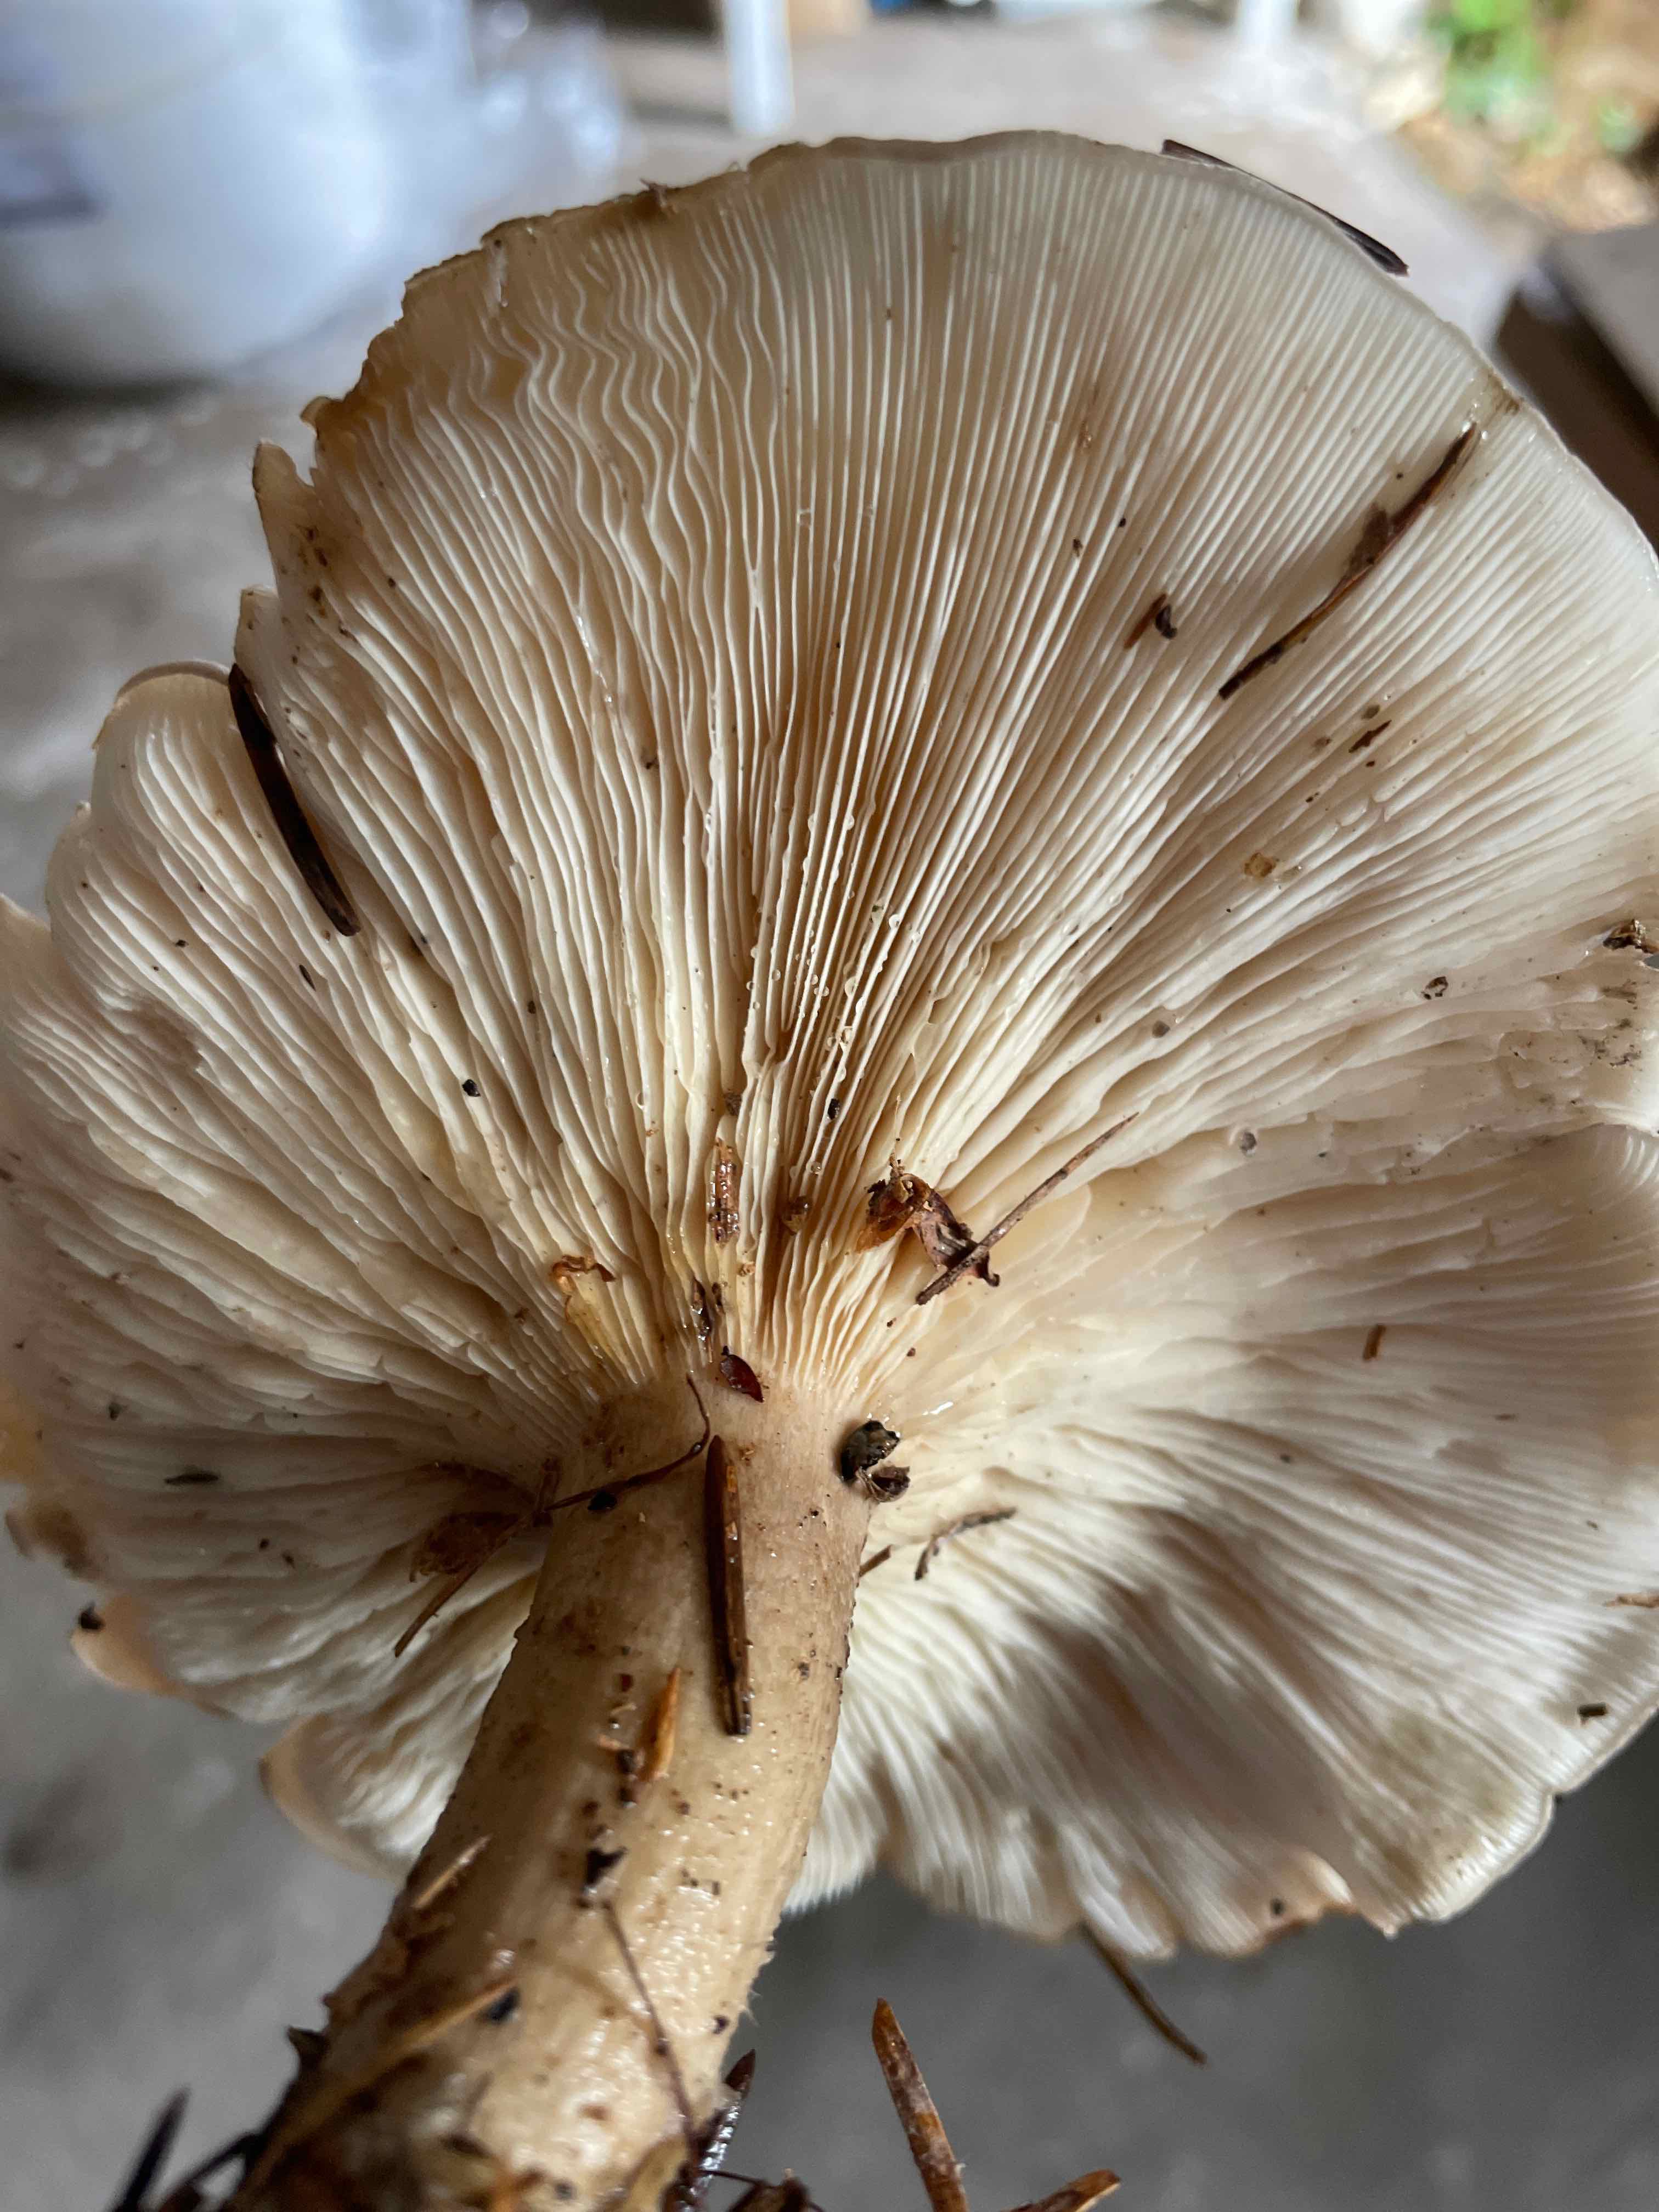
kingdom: Fungi
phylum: Basidiomycota
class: Agaricomycetes
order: Agaricales
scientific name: Agaricales
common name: champignonordenen
